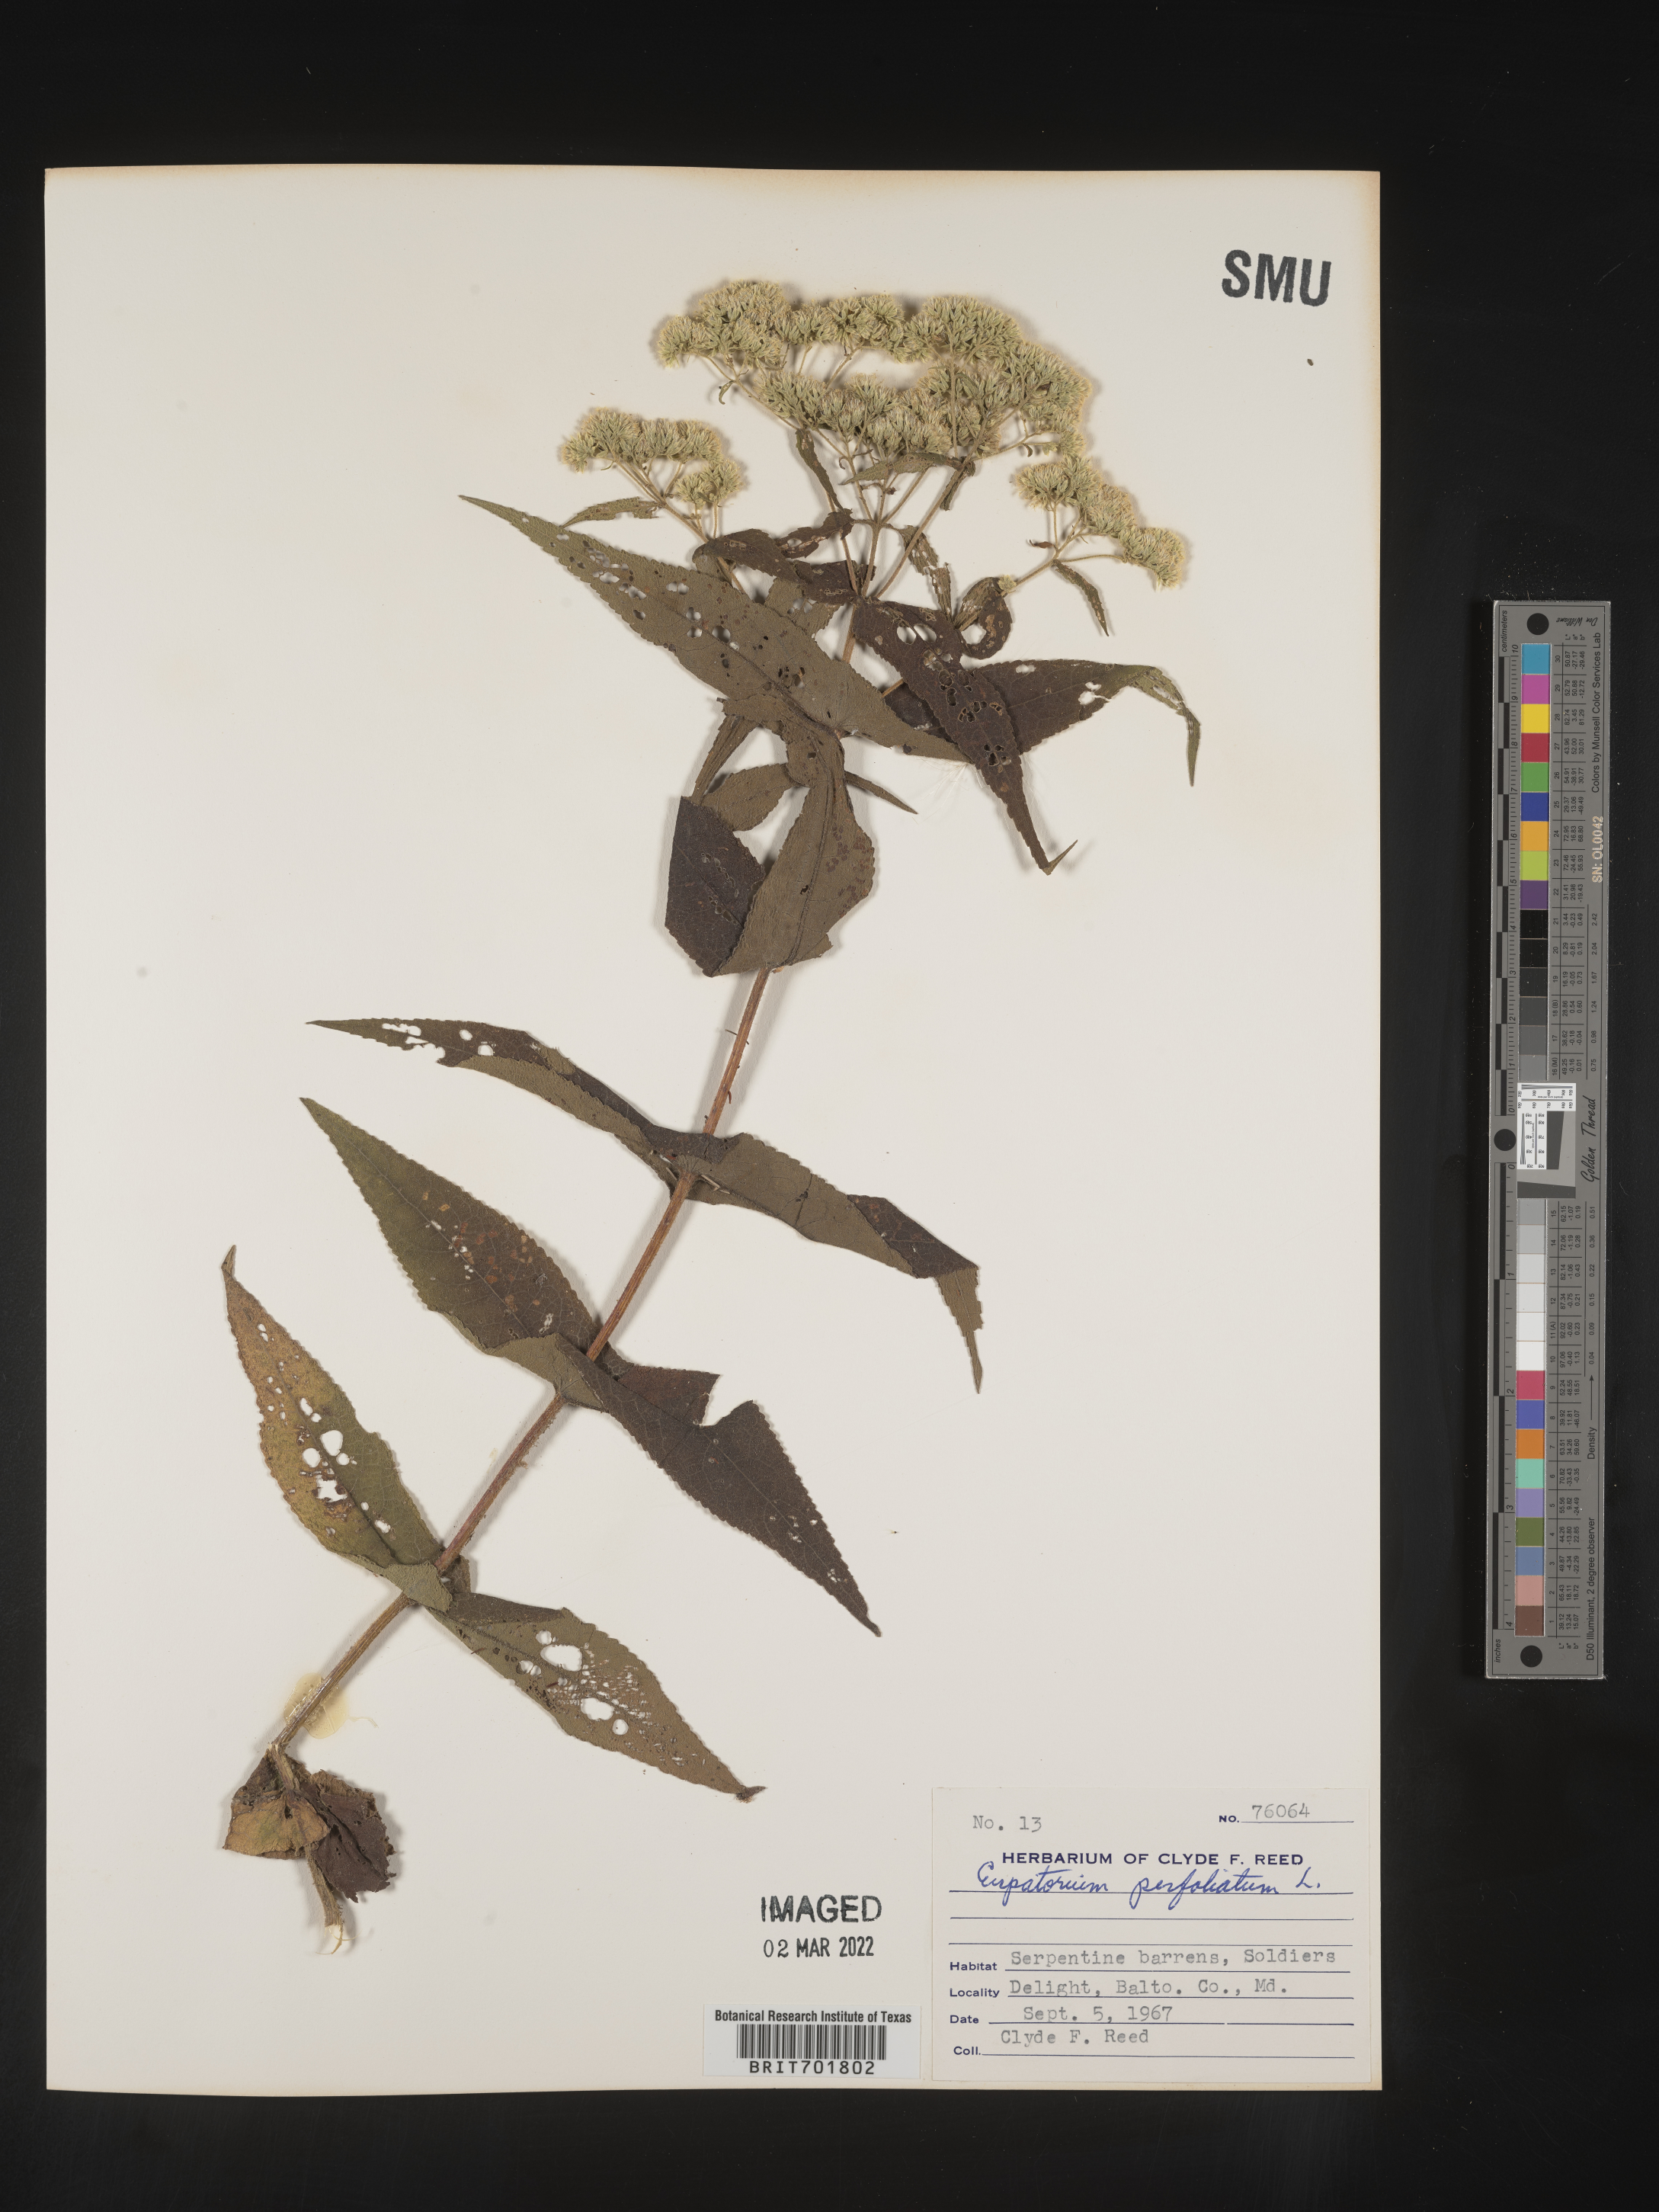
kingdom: Plantae
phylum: Tracheophyta
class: Magnoliopsida
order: Asterales
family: Asteraceae
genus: Eupatorium
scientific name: Eupatorium perfoliatum
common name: Boneset
